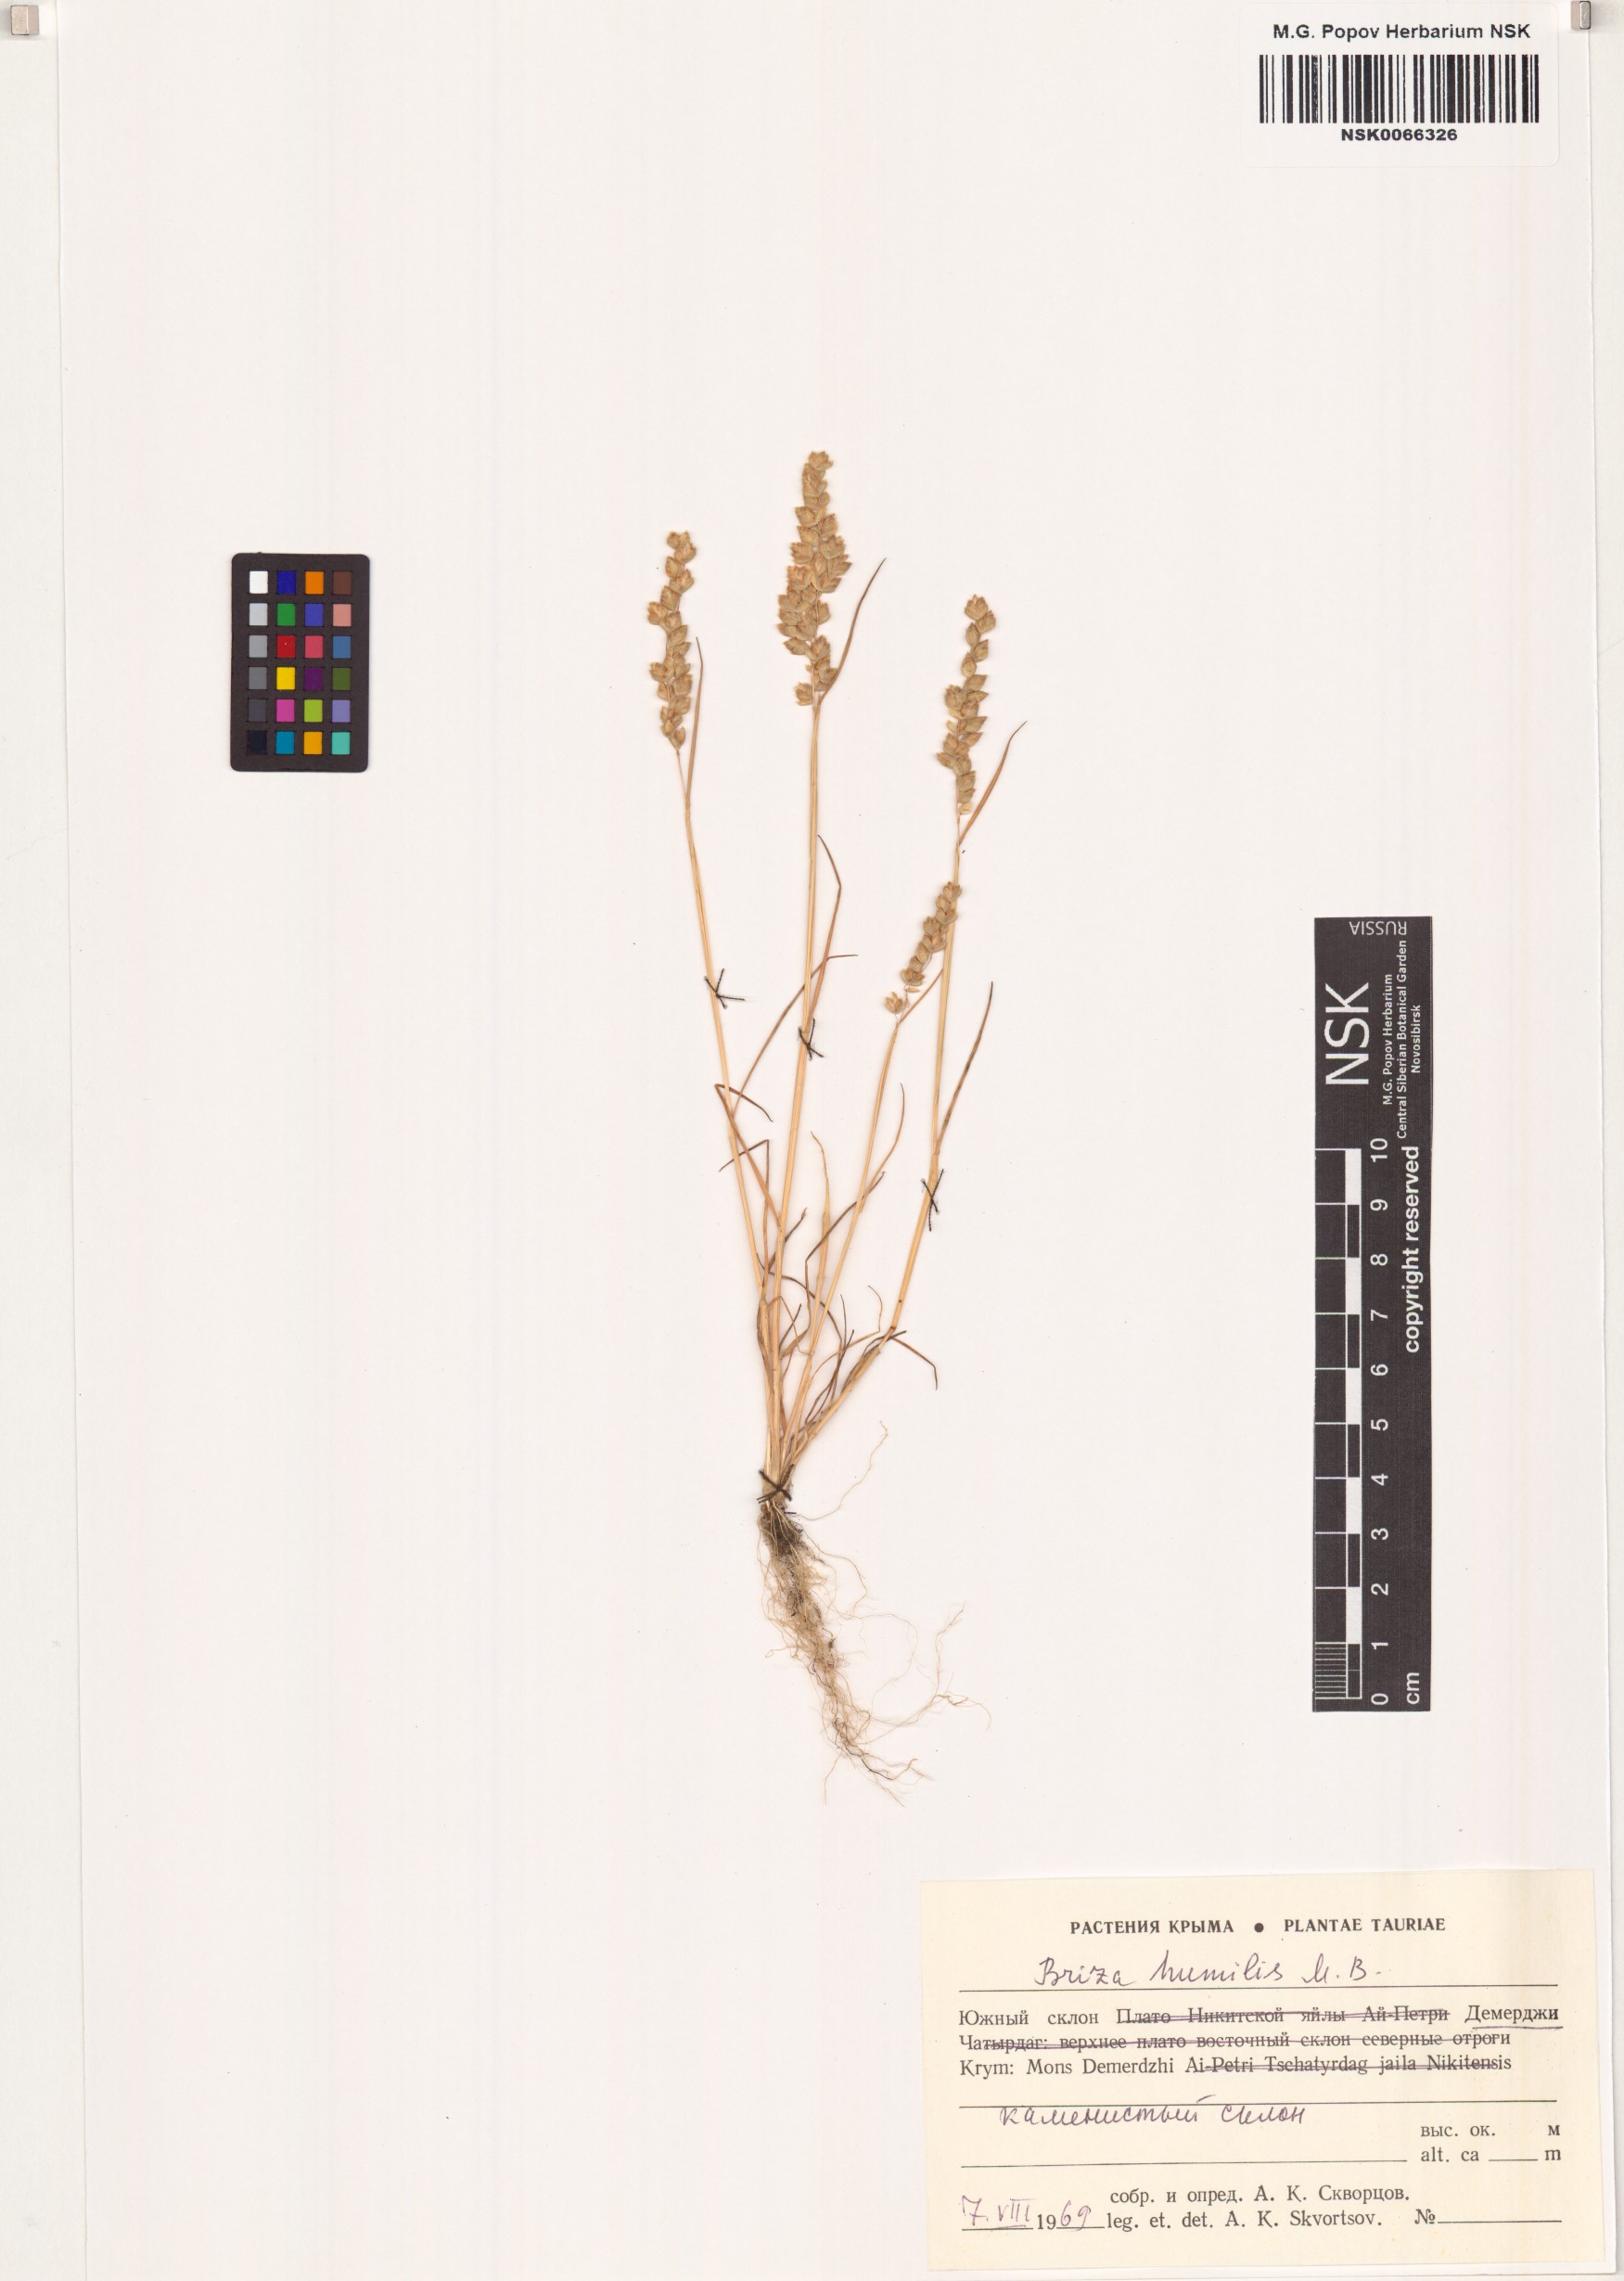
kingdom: Plantae
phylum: Tracheophyta
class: Liliopsida
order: Poales
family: Poaceae
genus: Briza
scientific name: Briza humilis
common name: Spiked quaking grass
